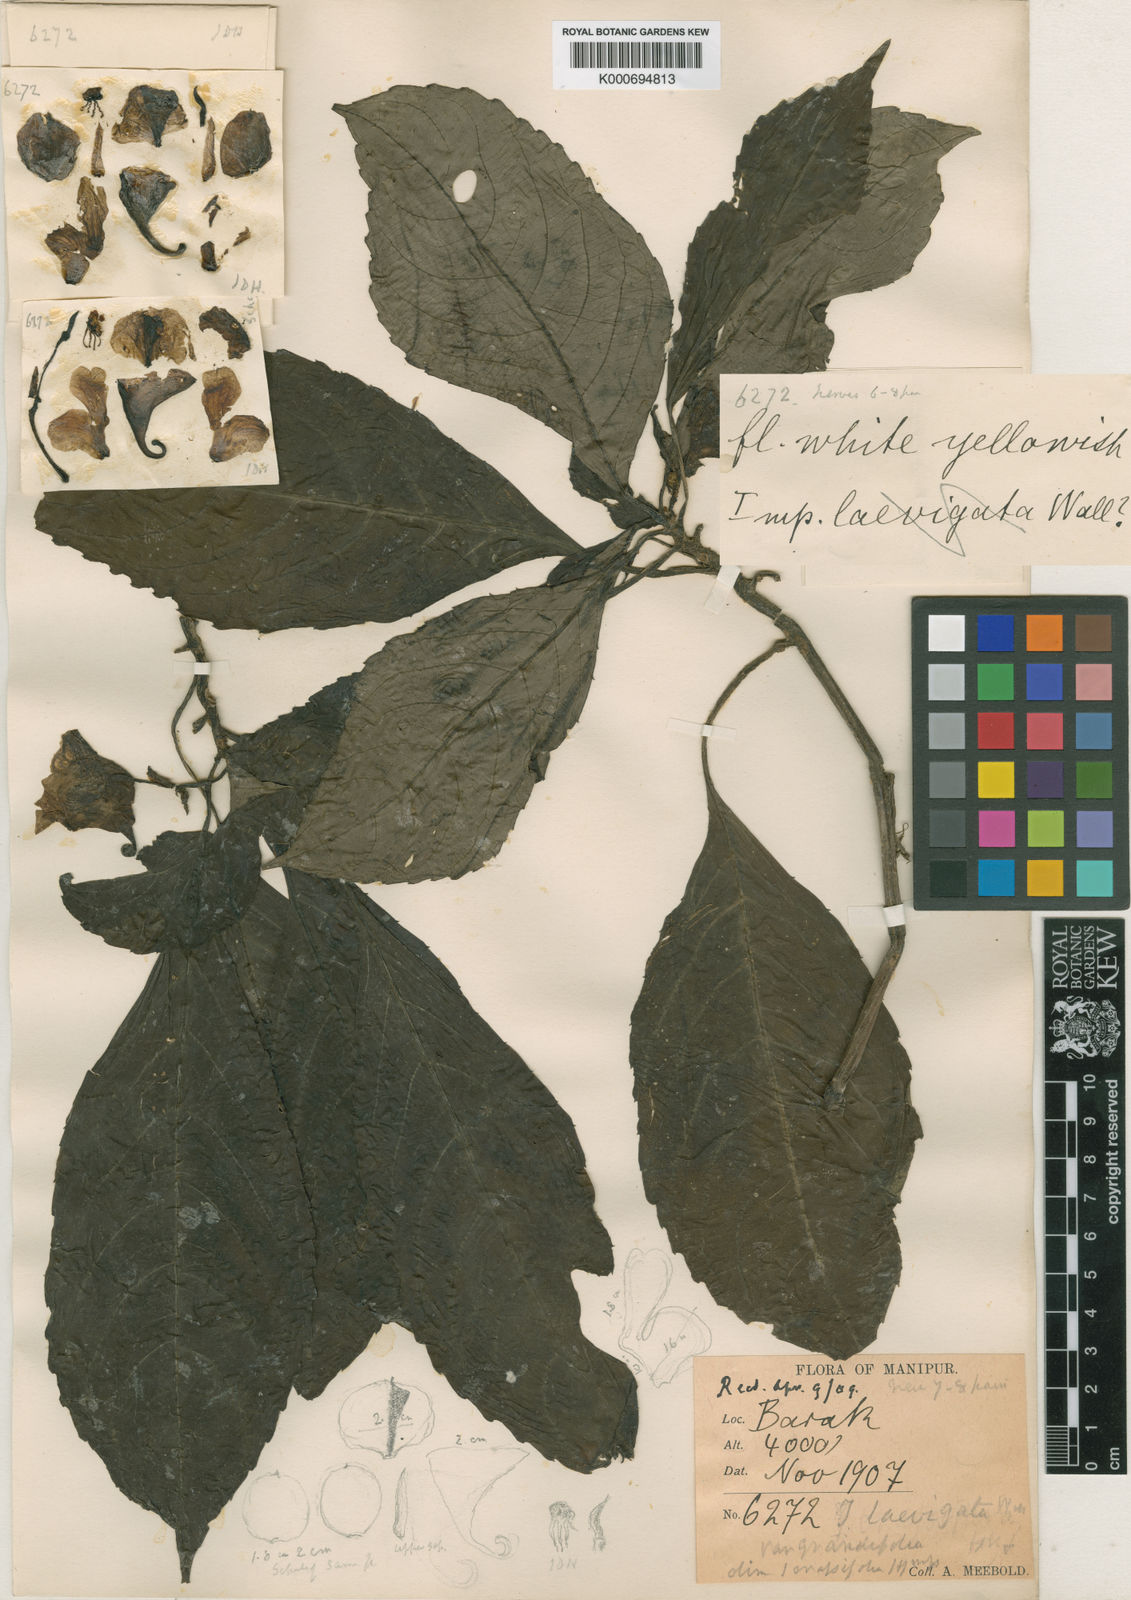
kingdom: Plantae
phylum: Tracheophyta
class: Magnoliopsida
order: Ericales
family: Balsaminaceae
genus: Impatiens
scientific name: Impatiens
